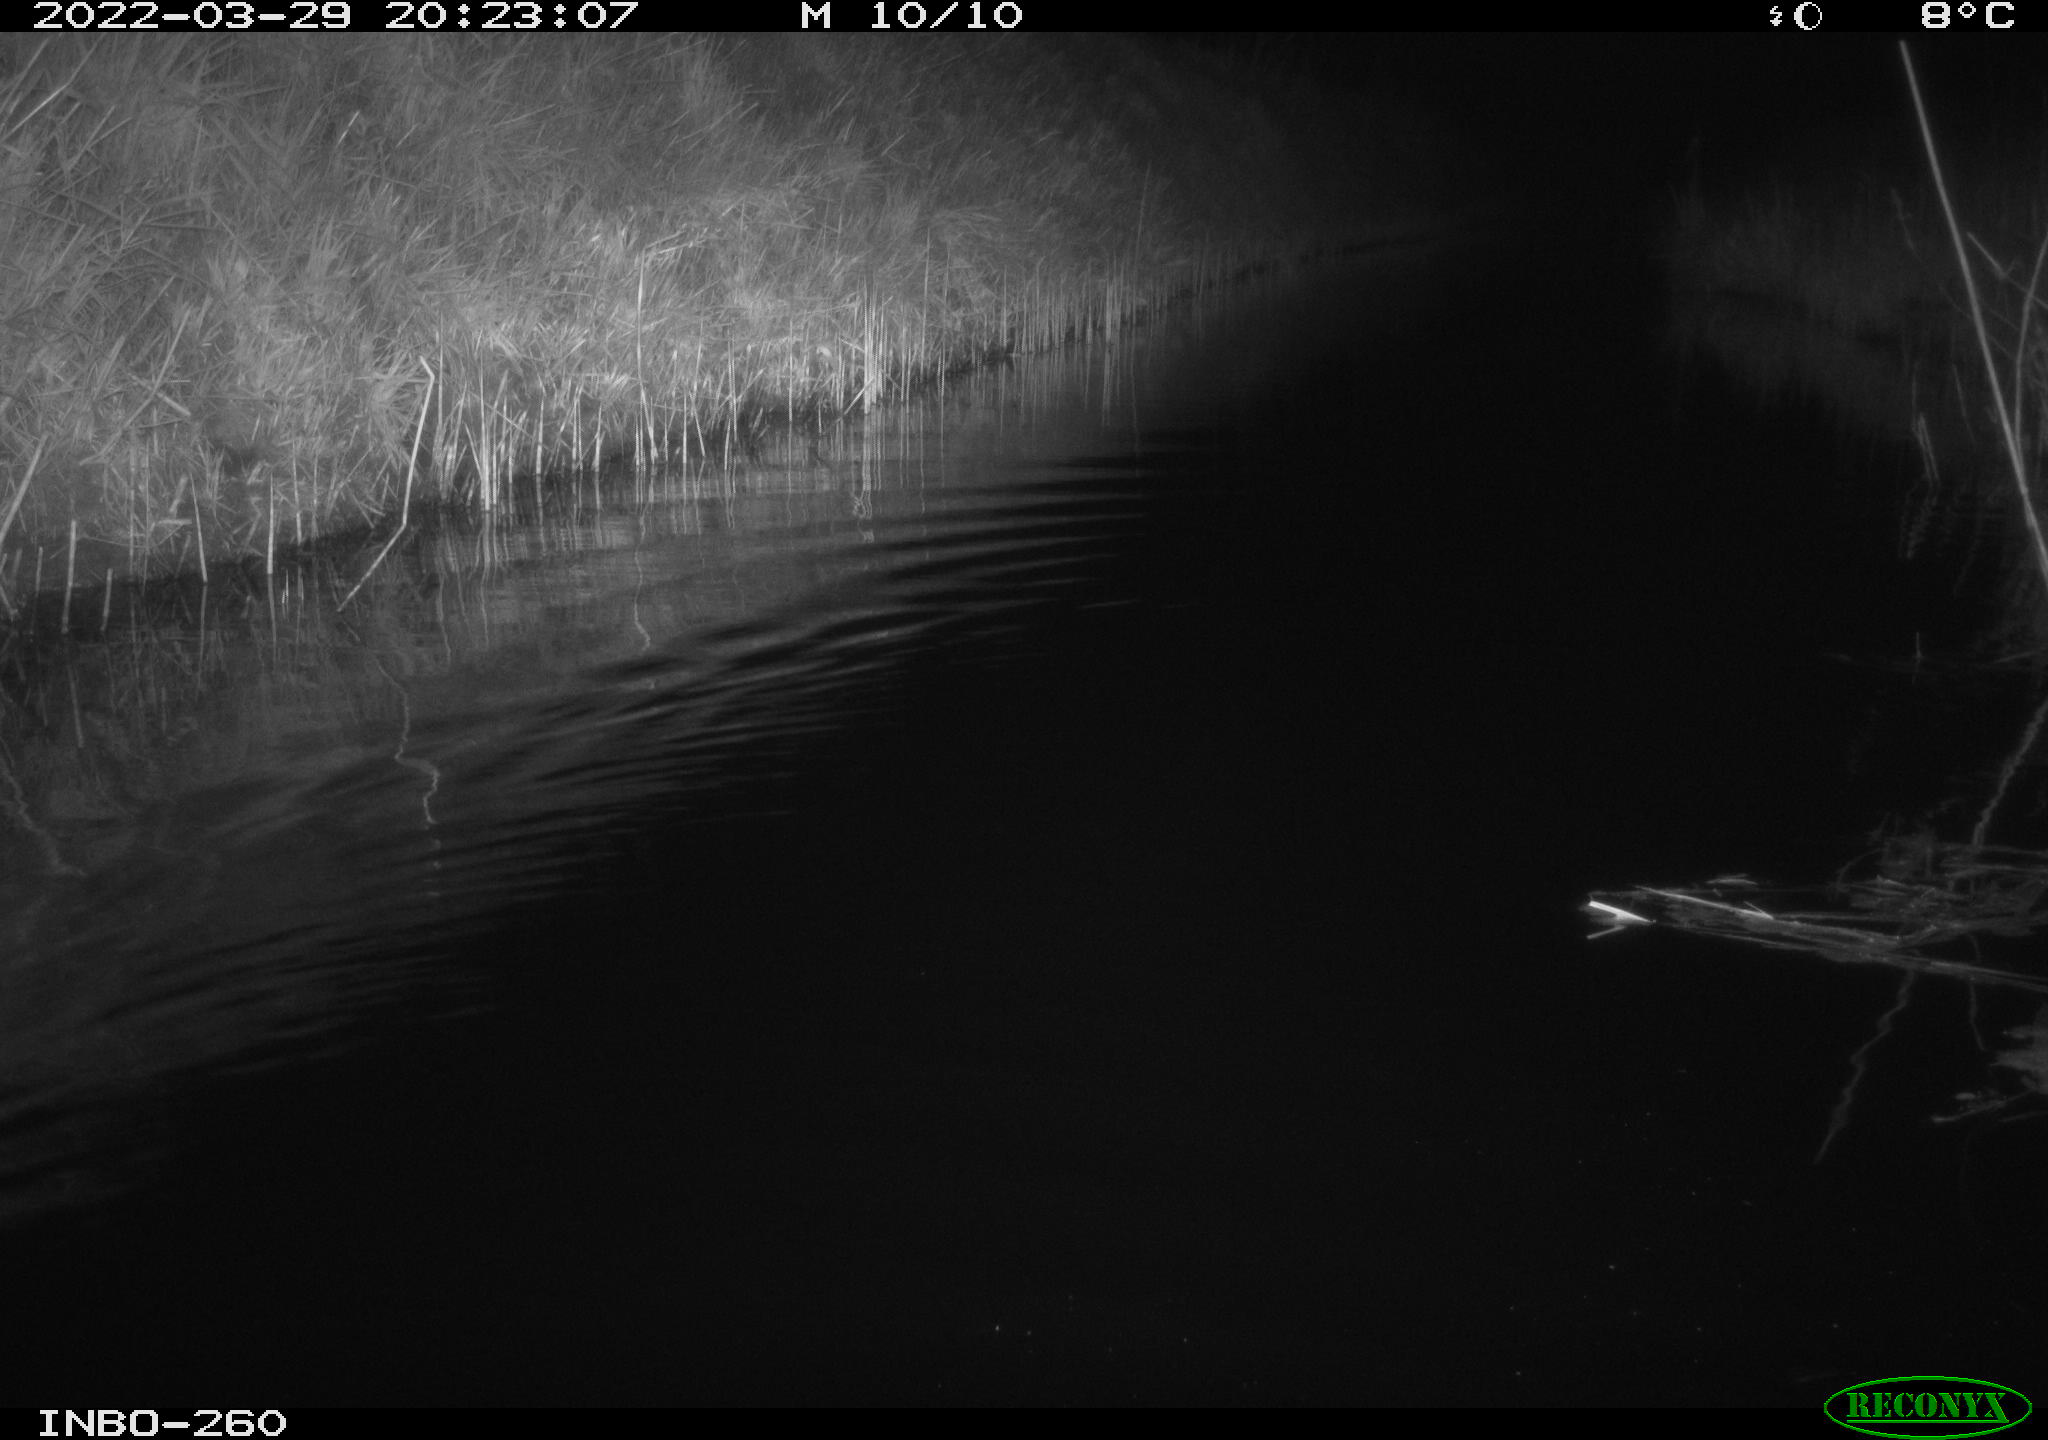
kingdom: Animalia
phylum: Chordata
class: Mammalia
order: Rodentia
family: Muridae
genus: Rattus
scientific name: Rattus norvegicus
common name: Brown rat
